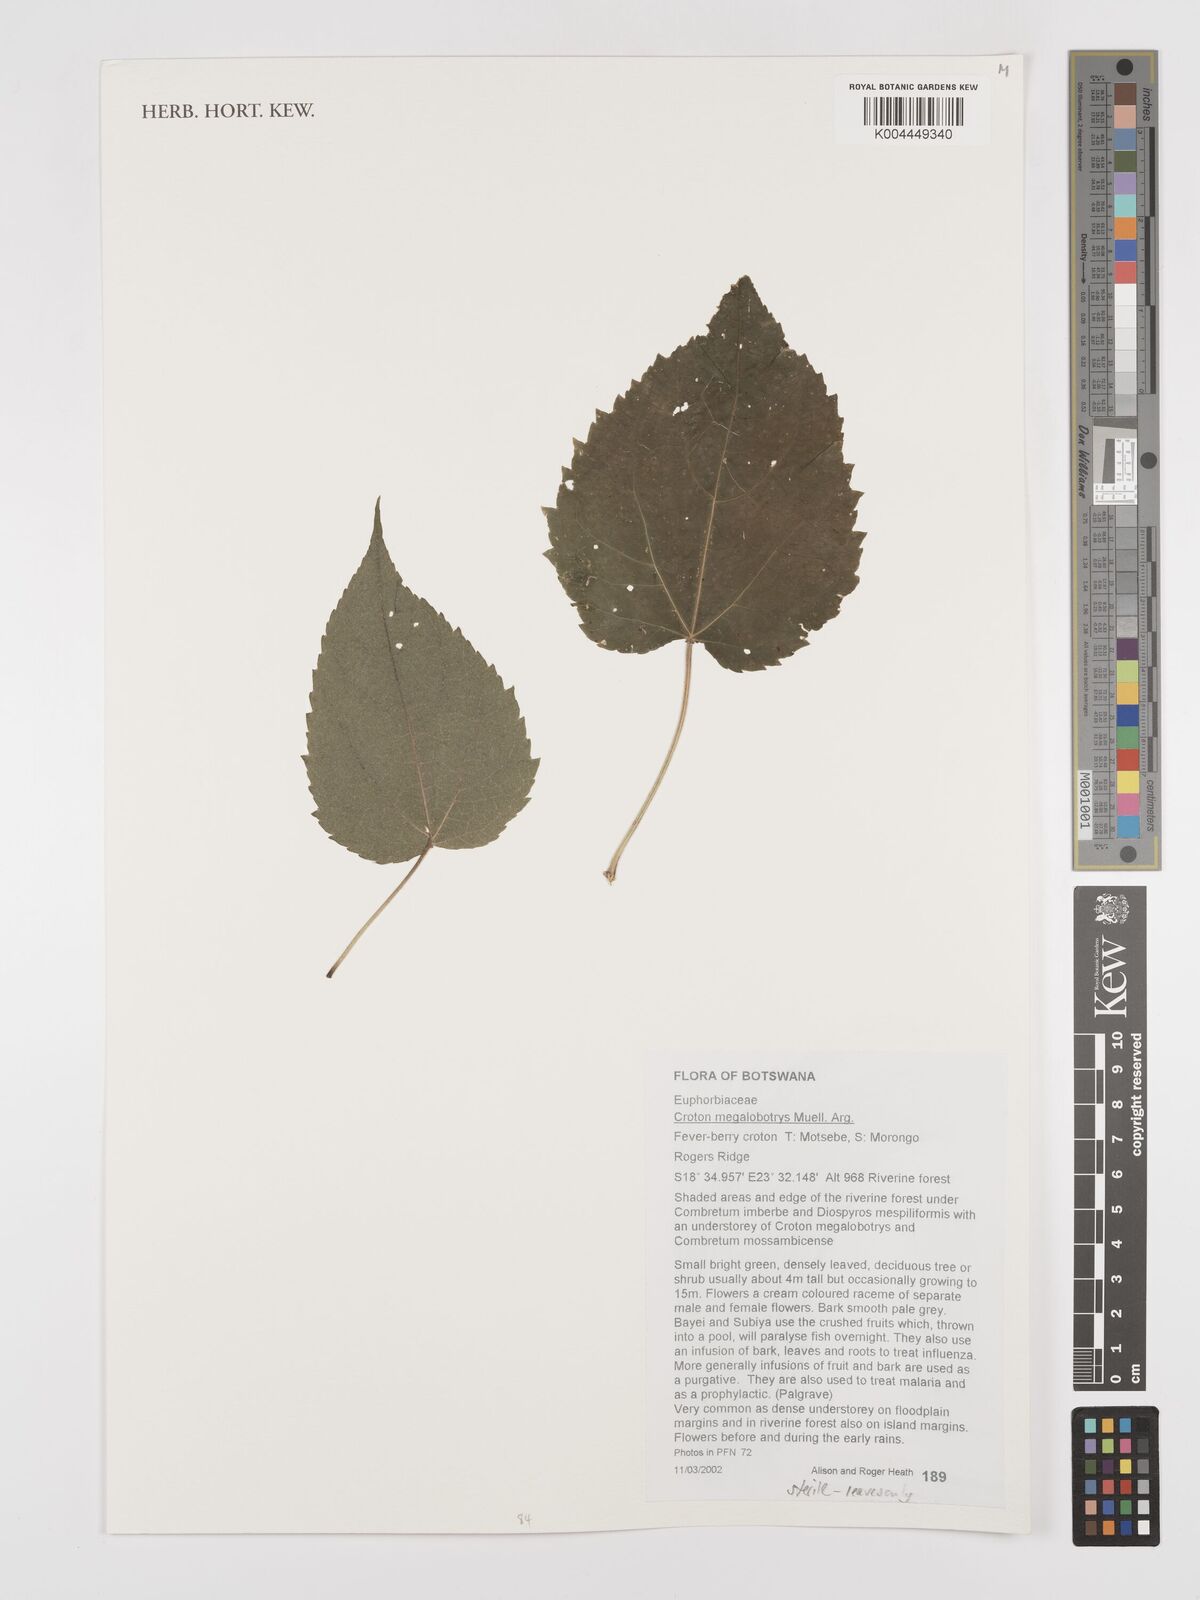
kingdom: Plantae
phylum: Tracheophyta
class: Magnoliopsida
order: Malpighiales
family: Euphorbiaceae
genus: Croton
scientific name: Croton megalobotrys
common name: Large fever berry
